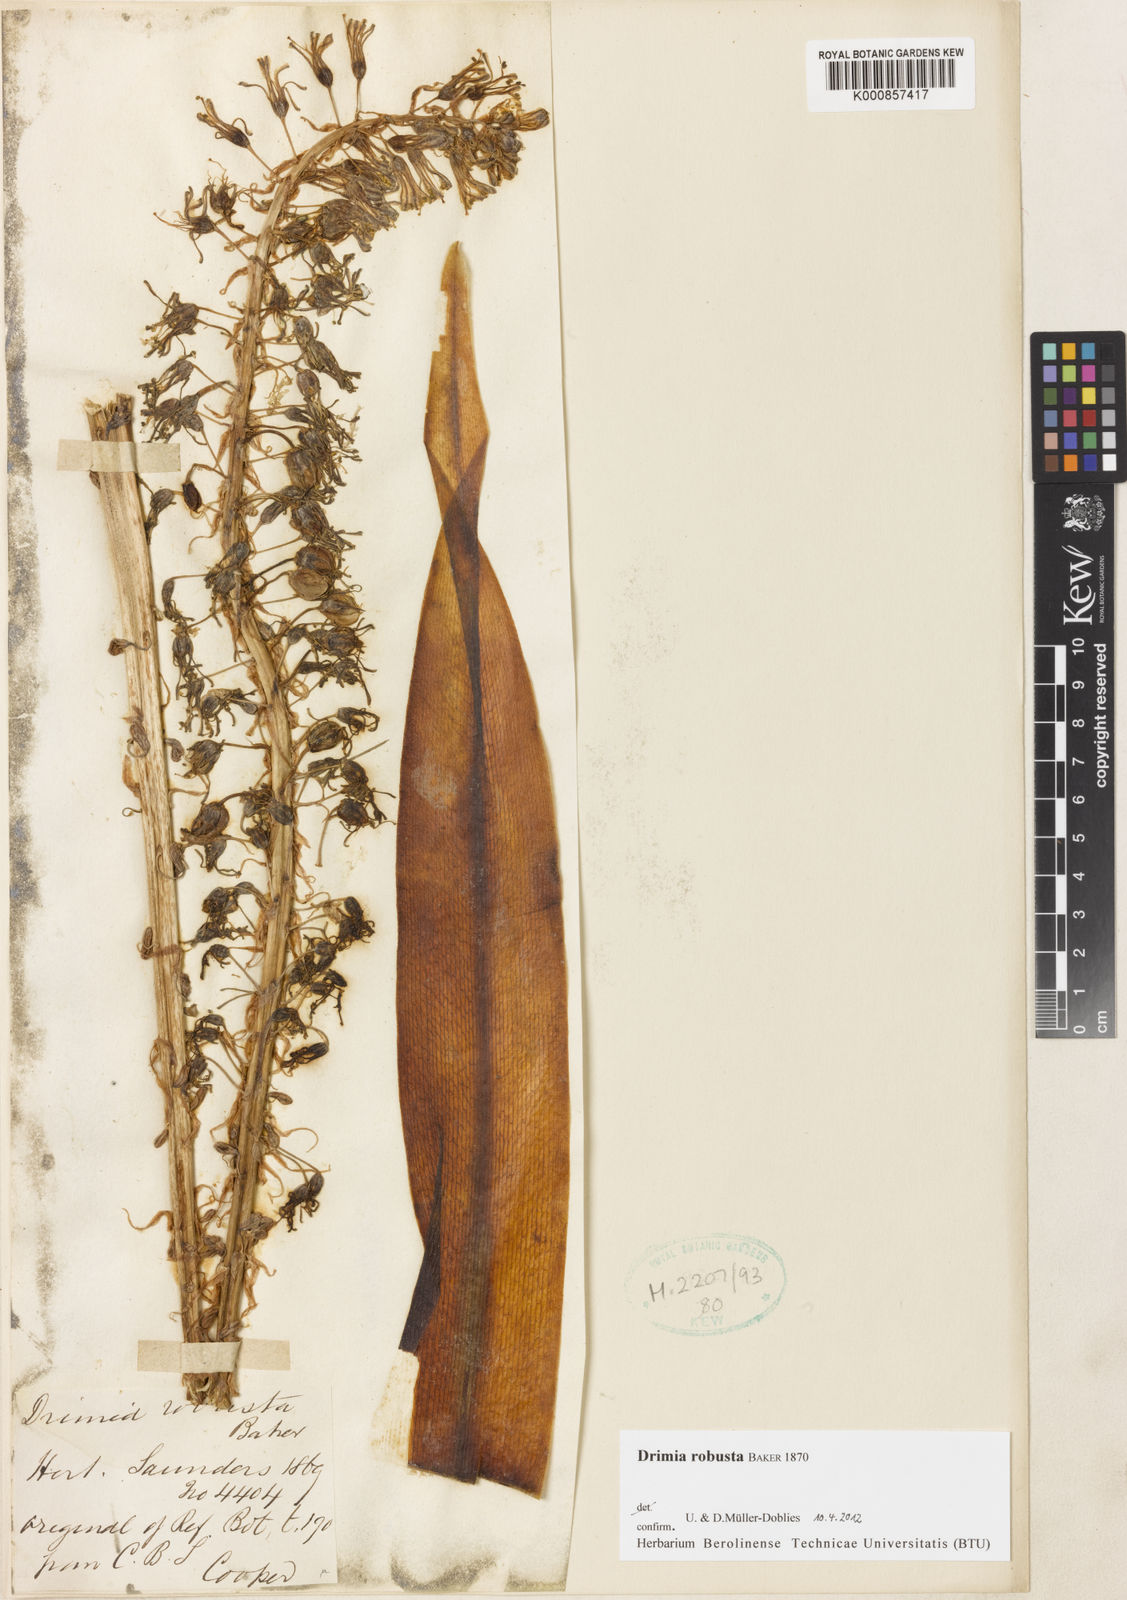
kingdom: Plantae
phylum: Tracheophyta
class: Liliopsida
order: Asparagales
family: Asparagaceae
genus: Drimia
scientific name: Drimia elata
